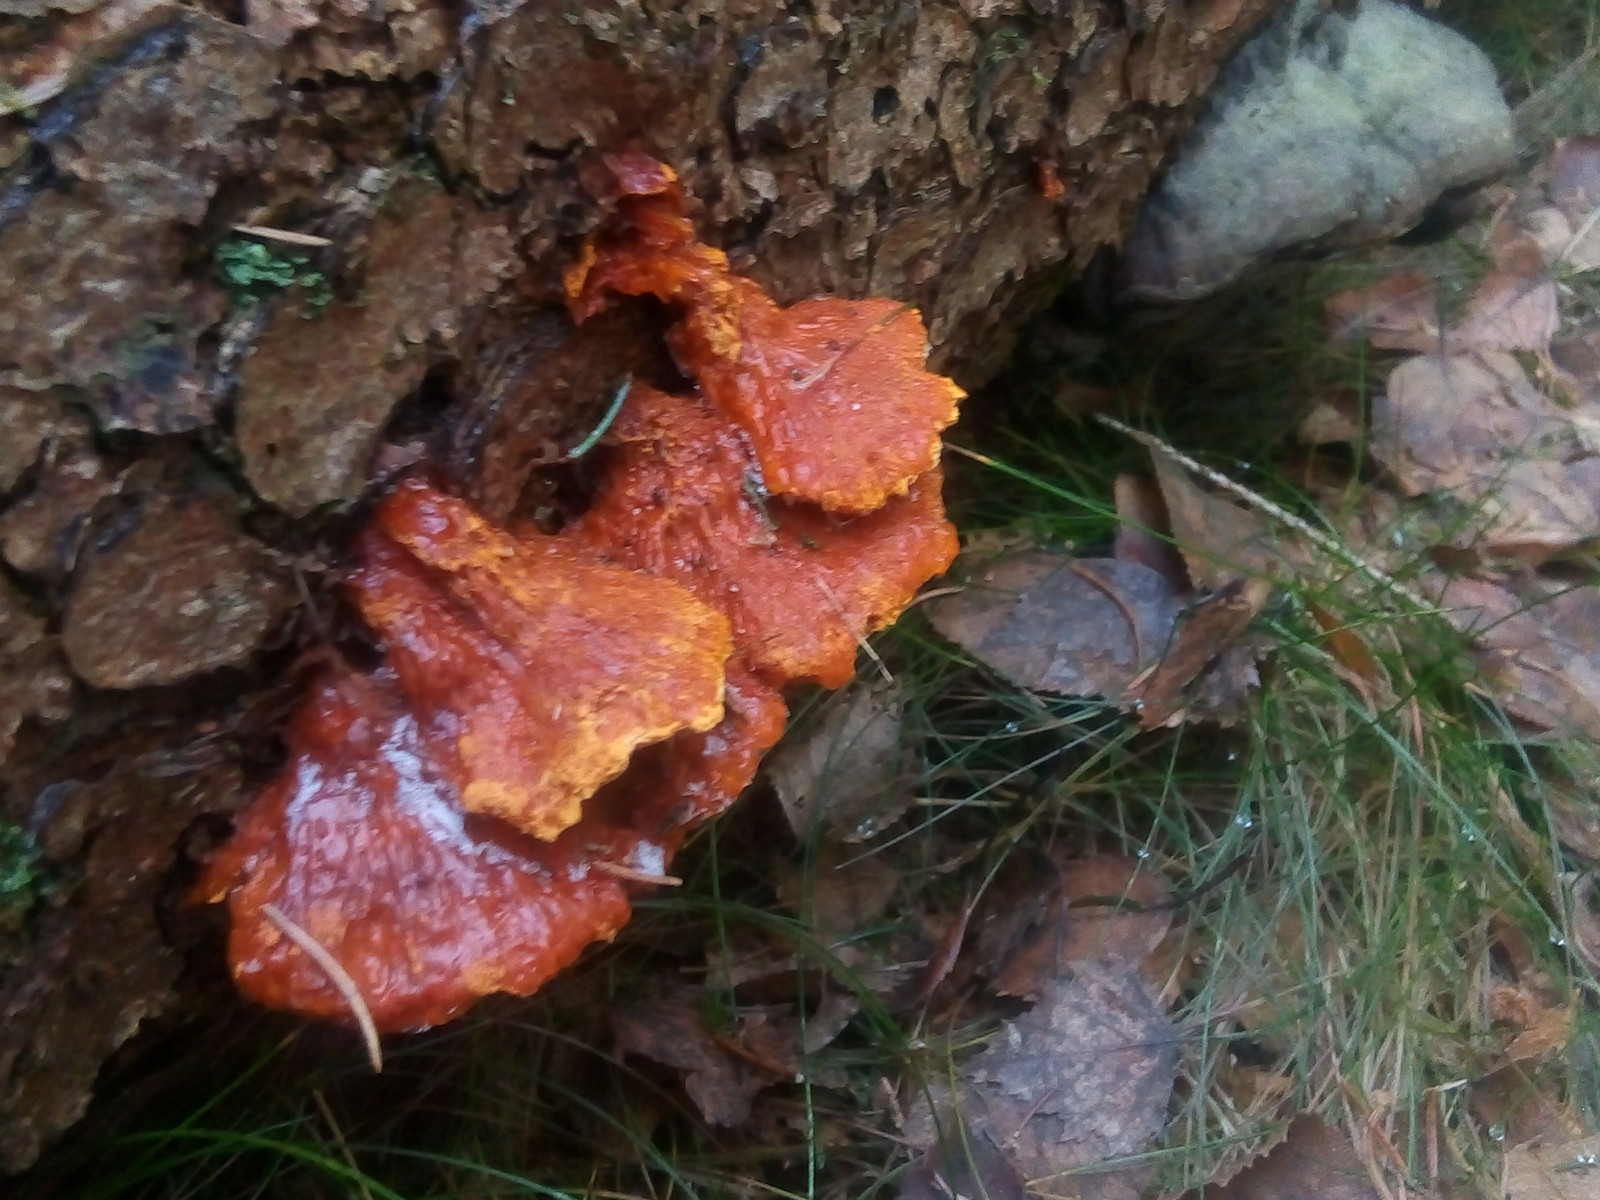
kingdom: Fungi
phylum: Basidiomycota
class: Agaricomycetes
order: Polyporales
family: Pycnoporellaceae
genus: Pycnoporellus
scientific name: Pycnoporellus fulgens
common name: flammeporesvamp
